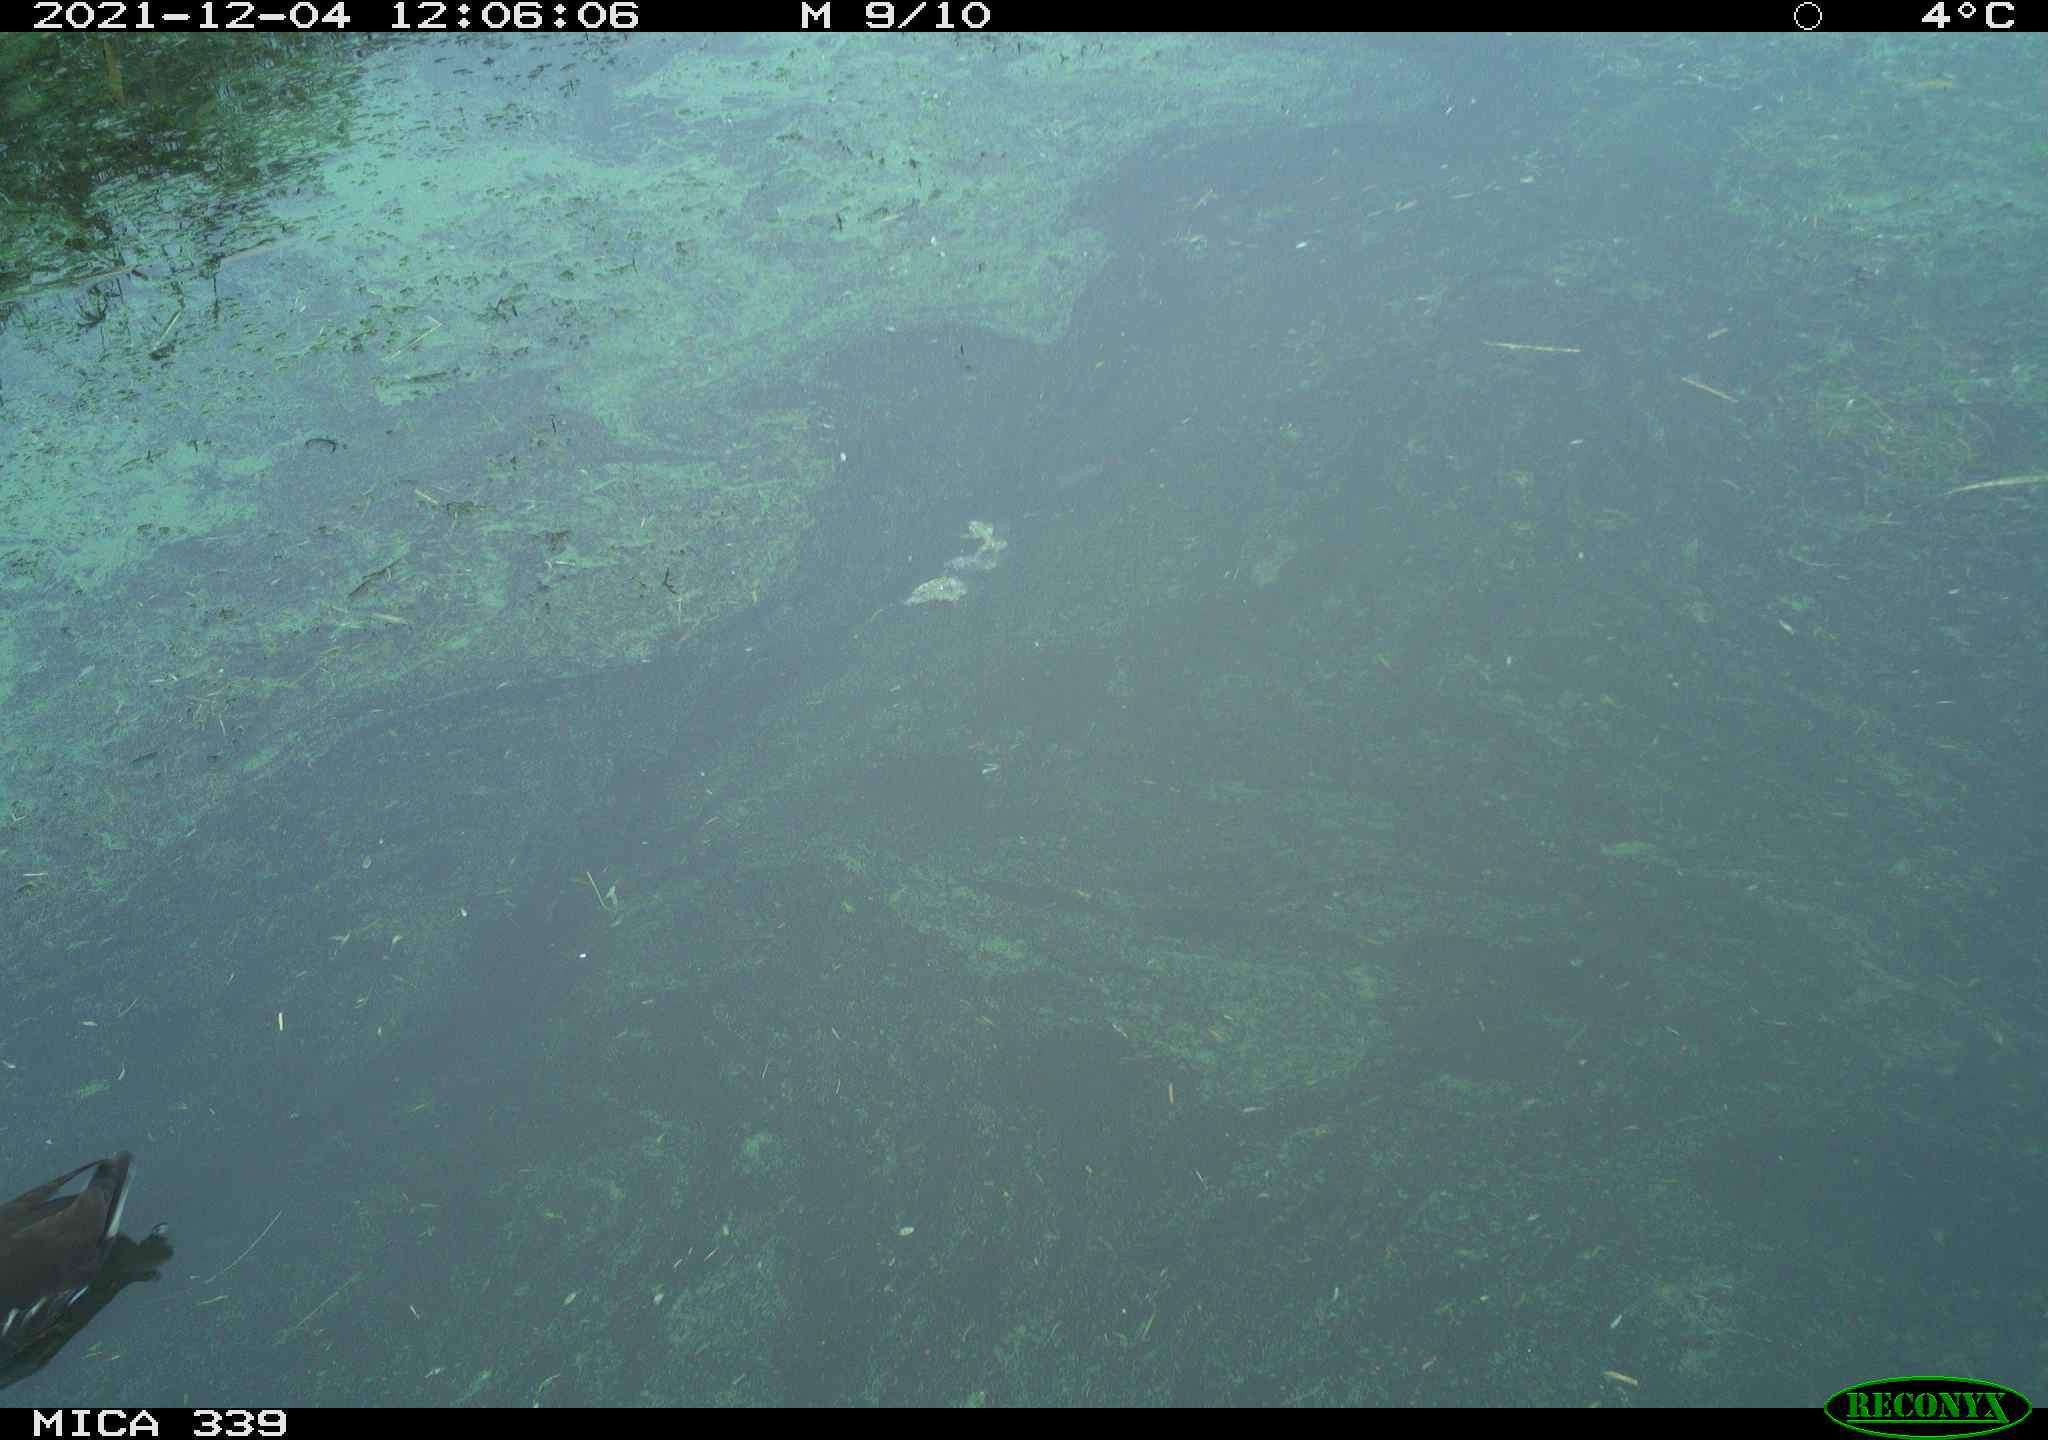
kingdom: Animalia
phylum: Chordata
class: Aves
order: Gruiformes
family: Rallidae
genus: Gallinula
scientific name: Gallinula chloropus
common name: Common moorhen
